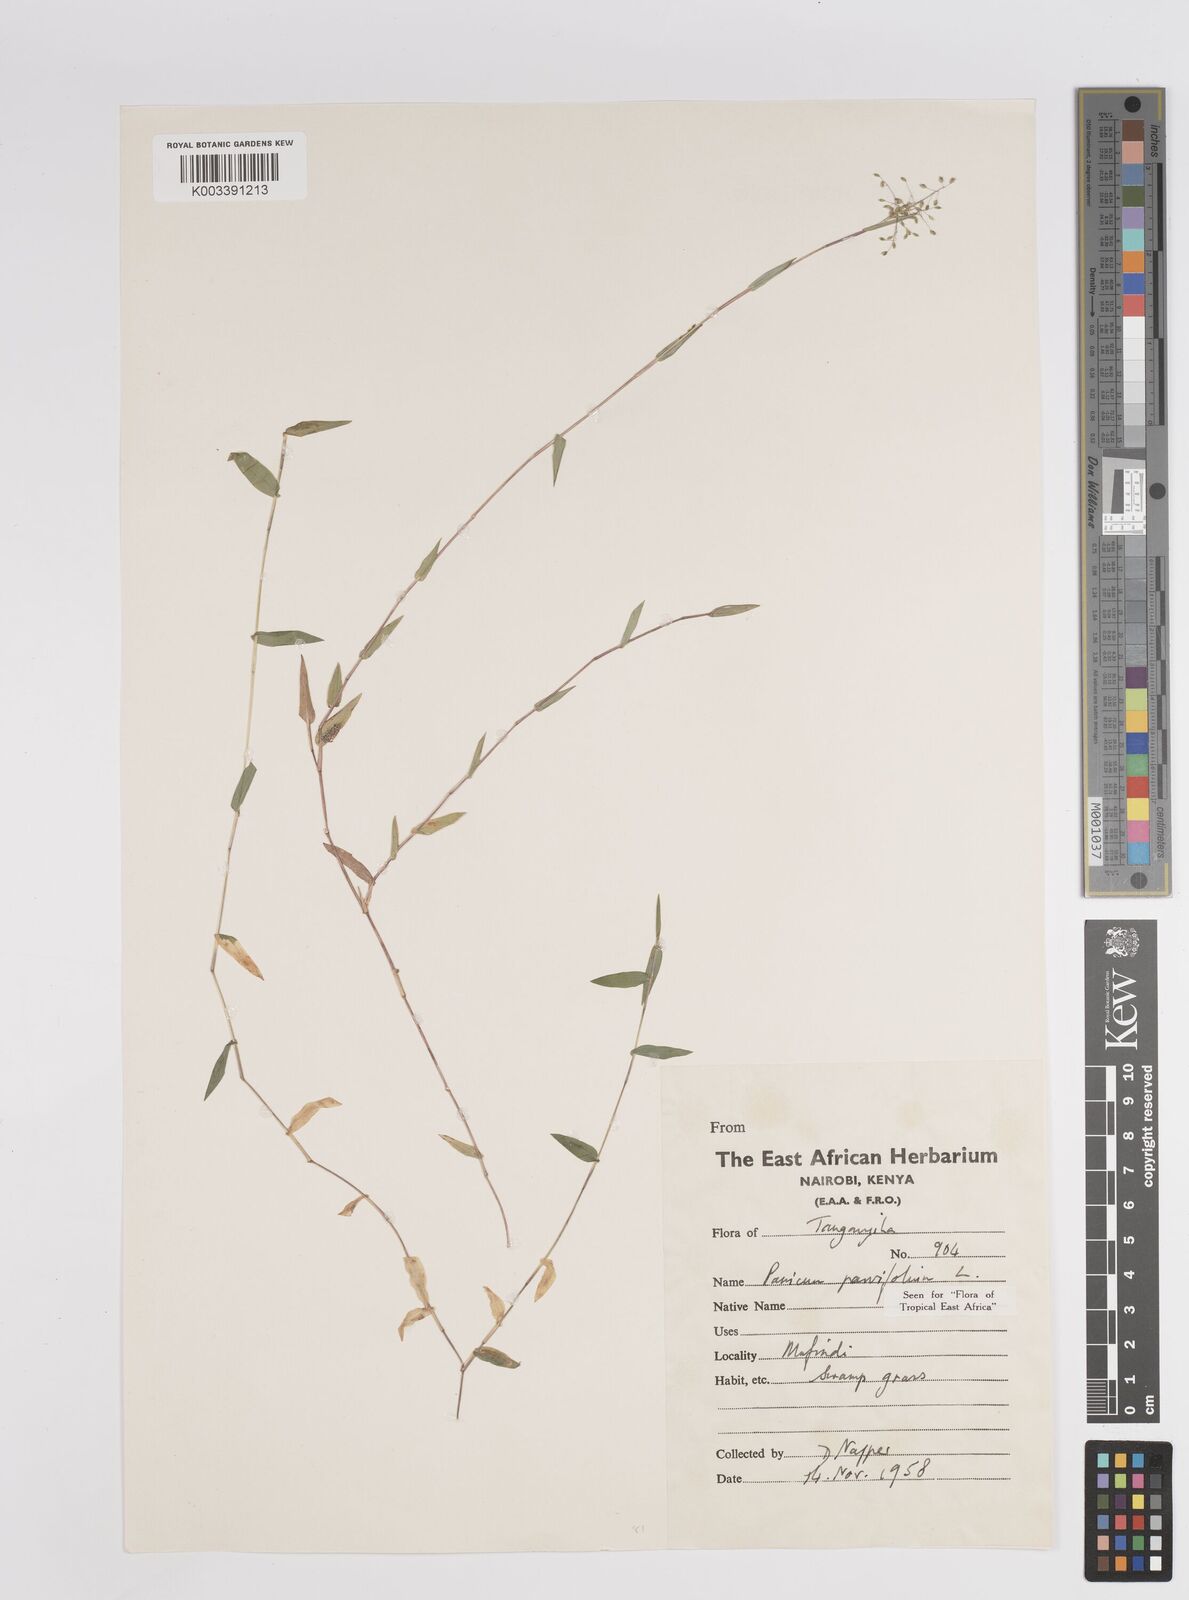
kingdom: Plantae
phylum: Tracheophyta
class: Liliopsida
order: Poales
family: Poaceae
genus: Trichanthecium
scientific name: Trichanthecium parvifolium
